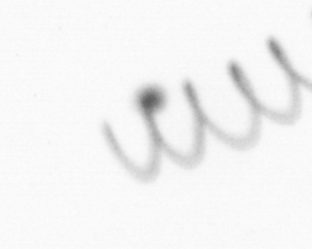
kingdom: Chromista
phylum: Ochrophyta
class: Bacillariophyceae
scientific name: Bacillariophyceae
